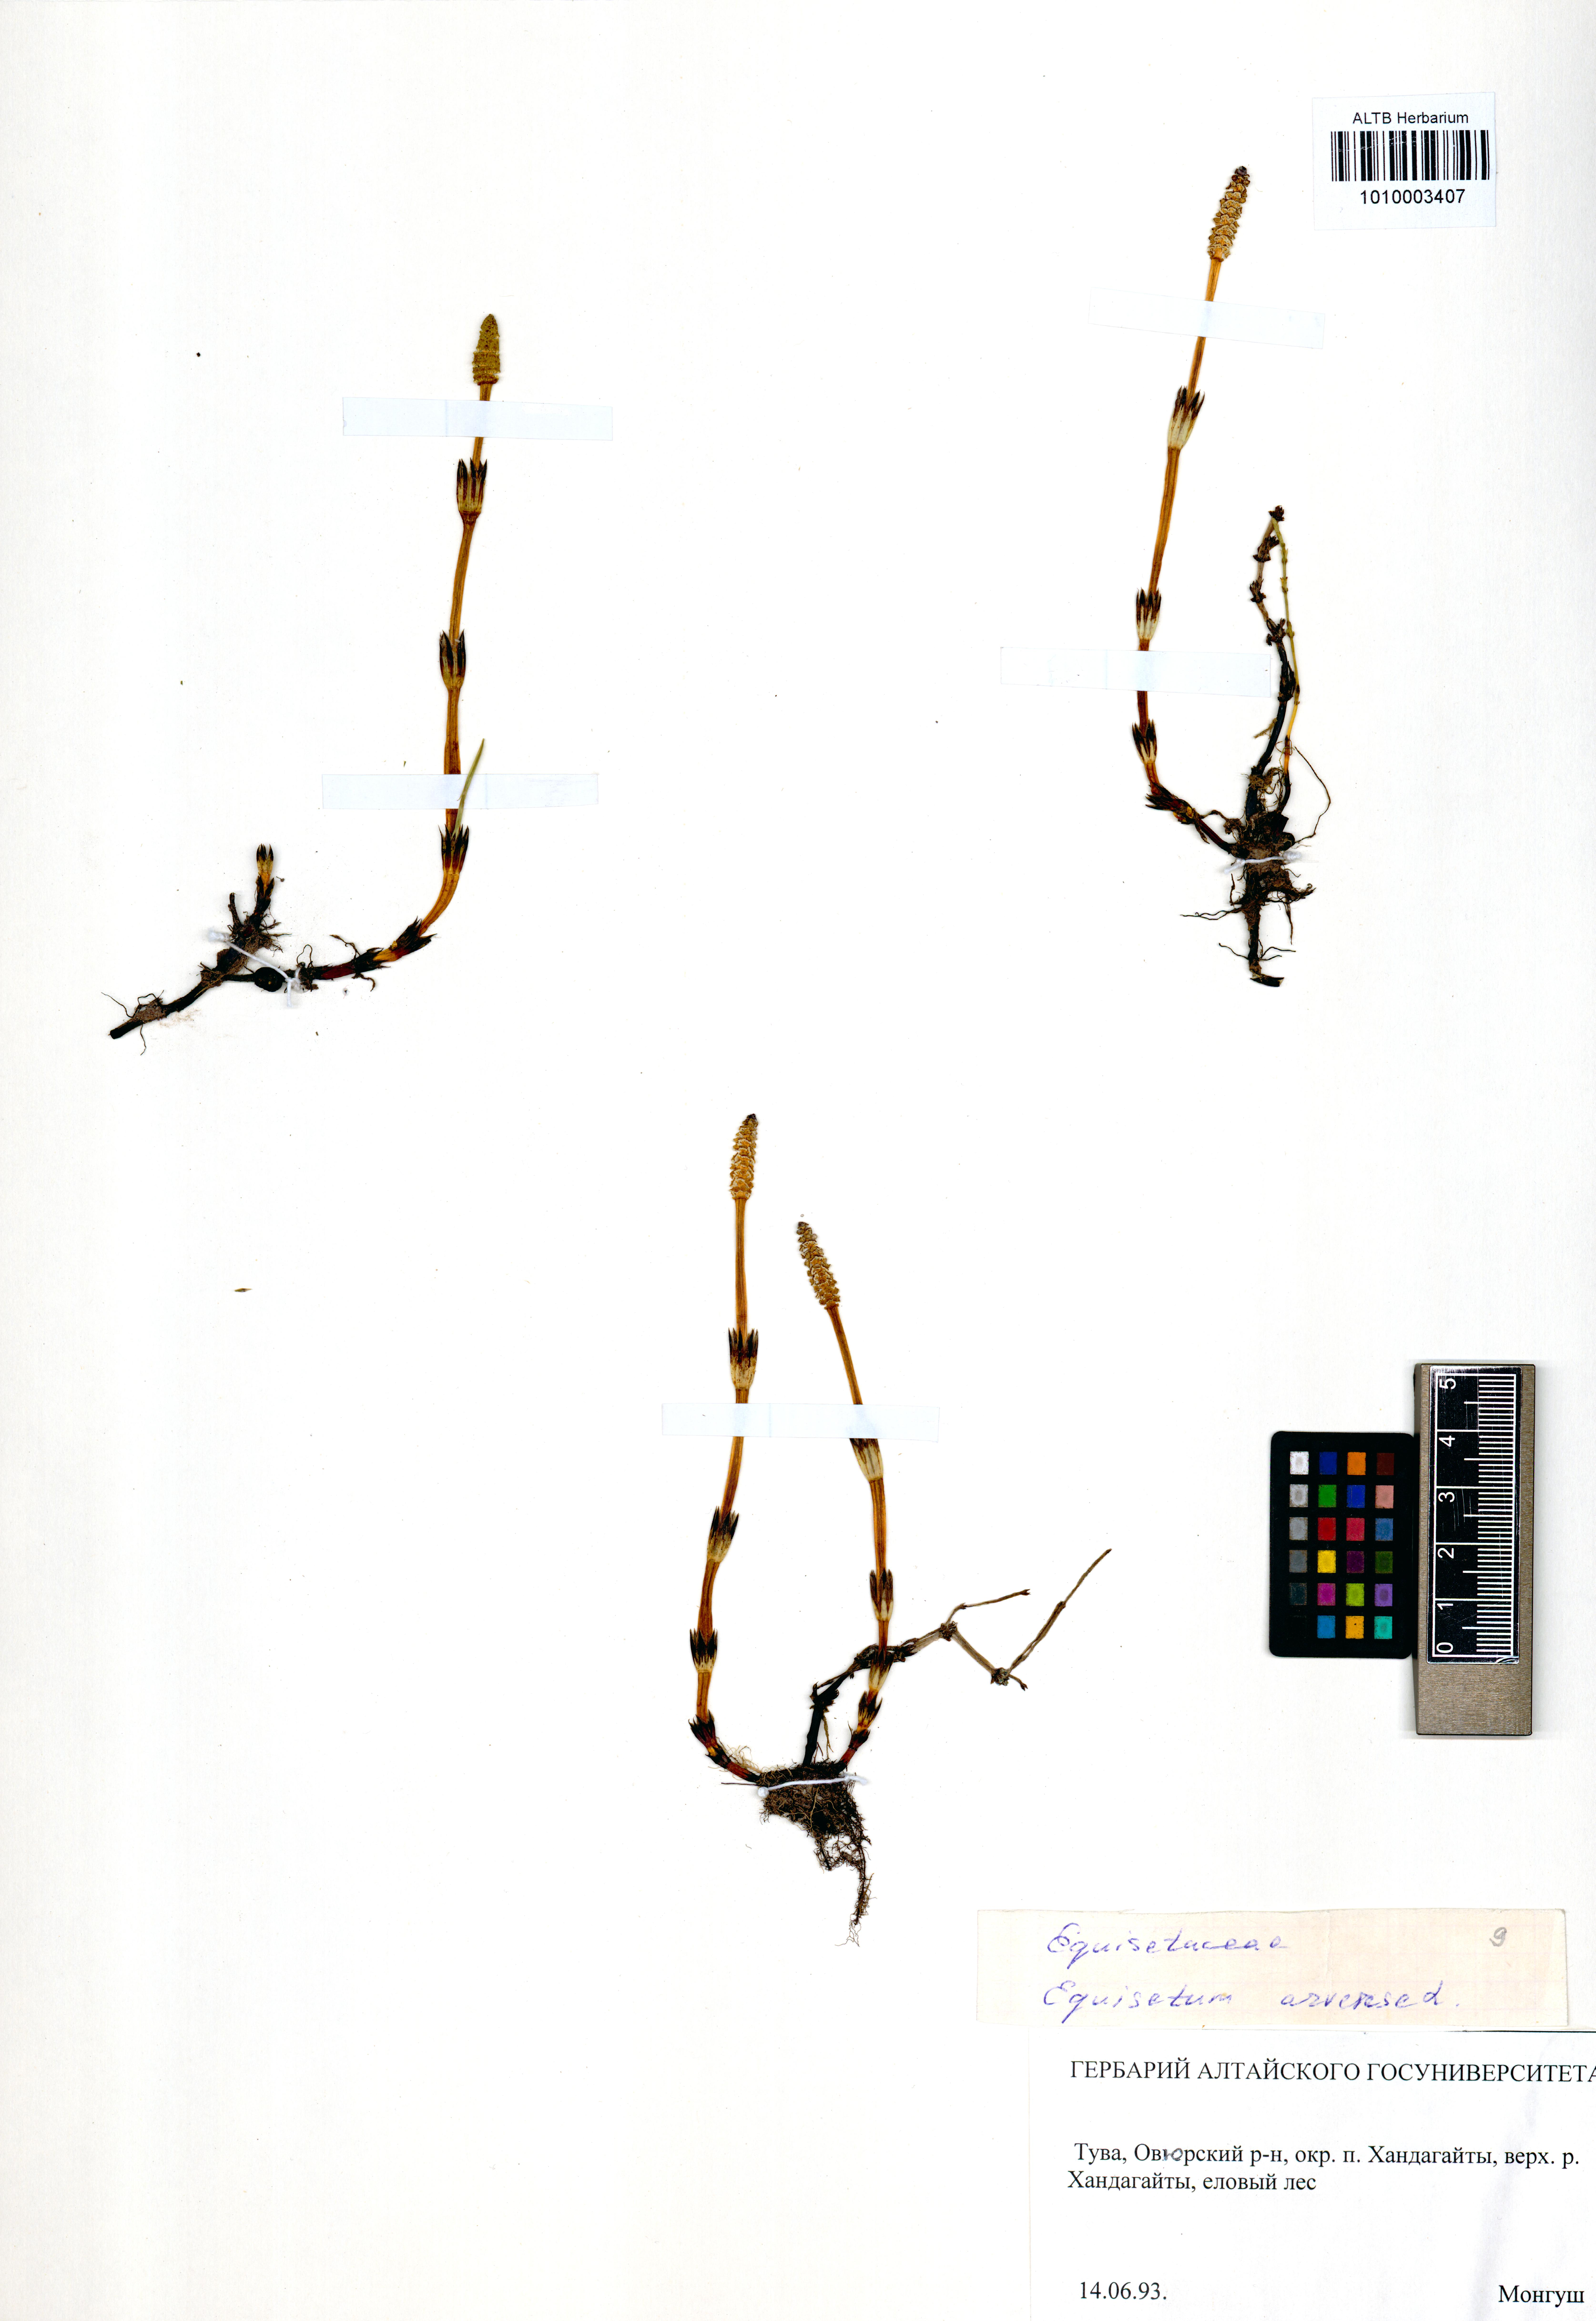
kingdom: Plantae
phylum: Tracheophyta
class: Polypodiopsida
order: Equisetales
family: Equisetaceae
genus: Equisetum
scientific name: Equisetum arvense
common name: Field horsetail
